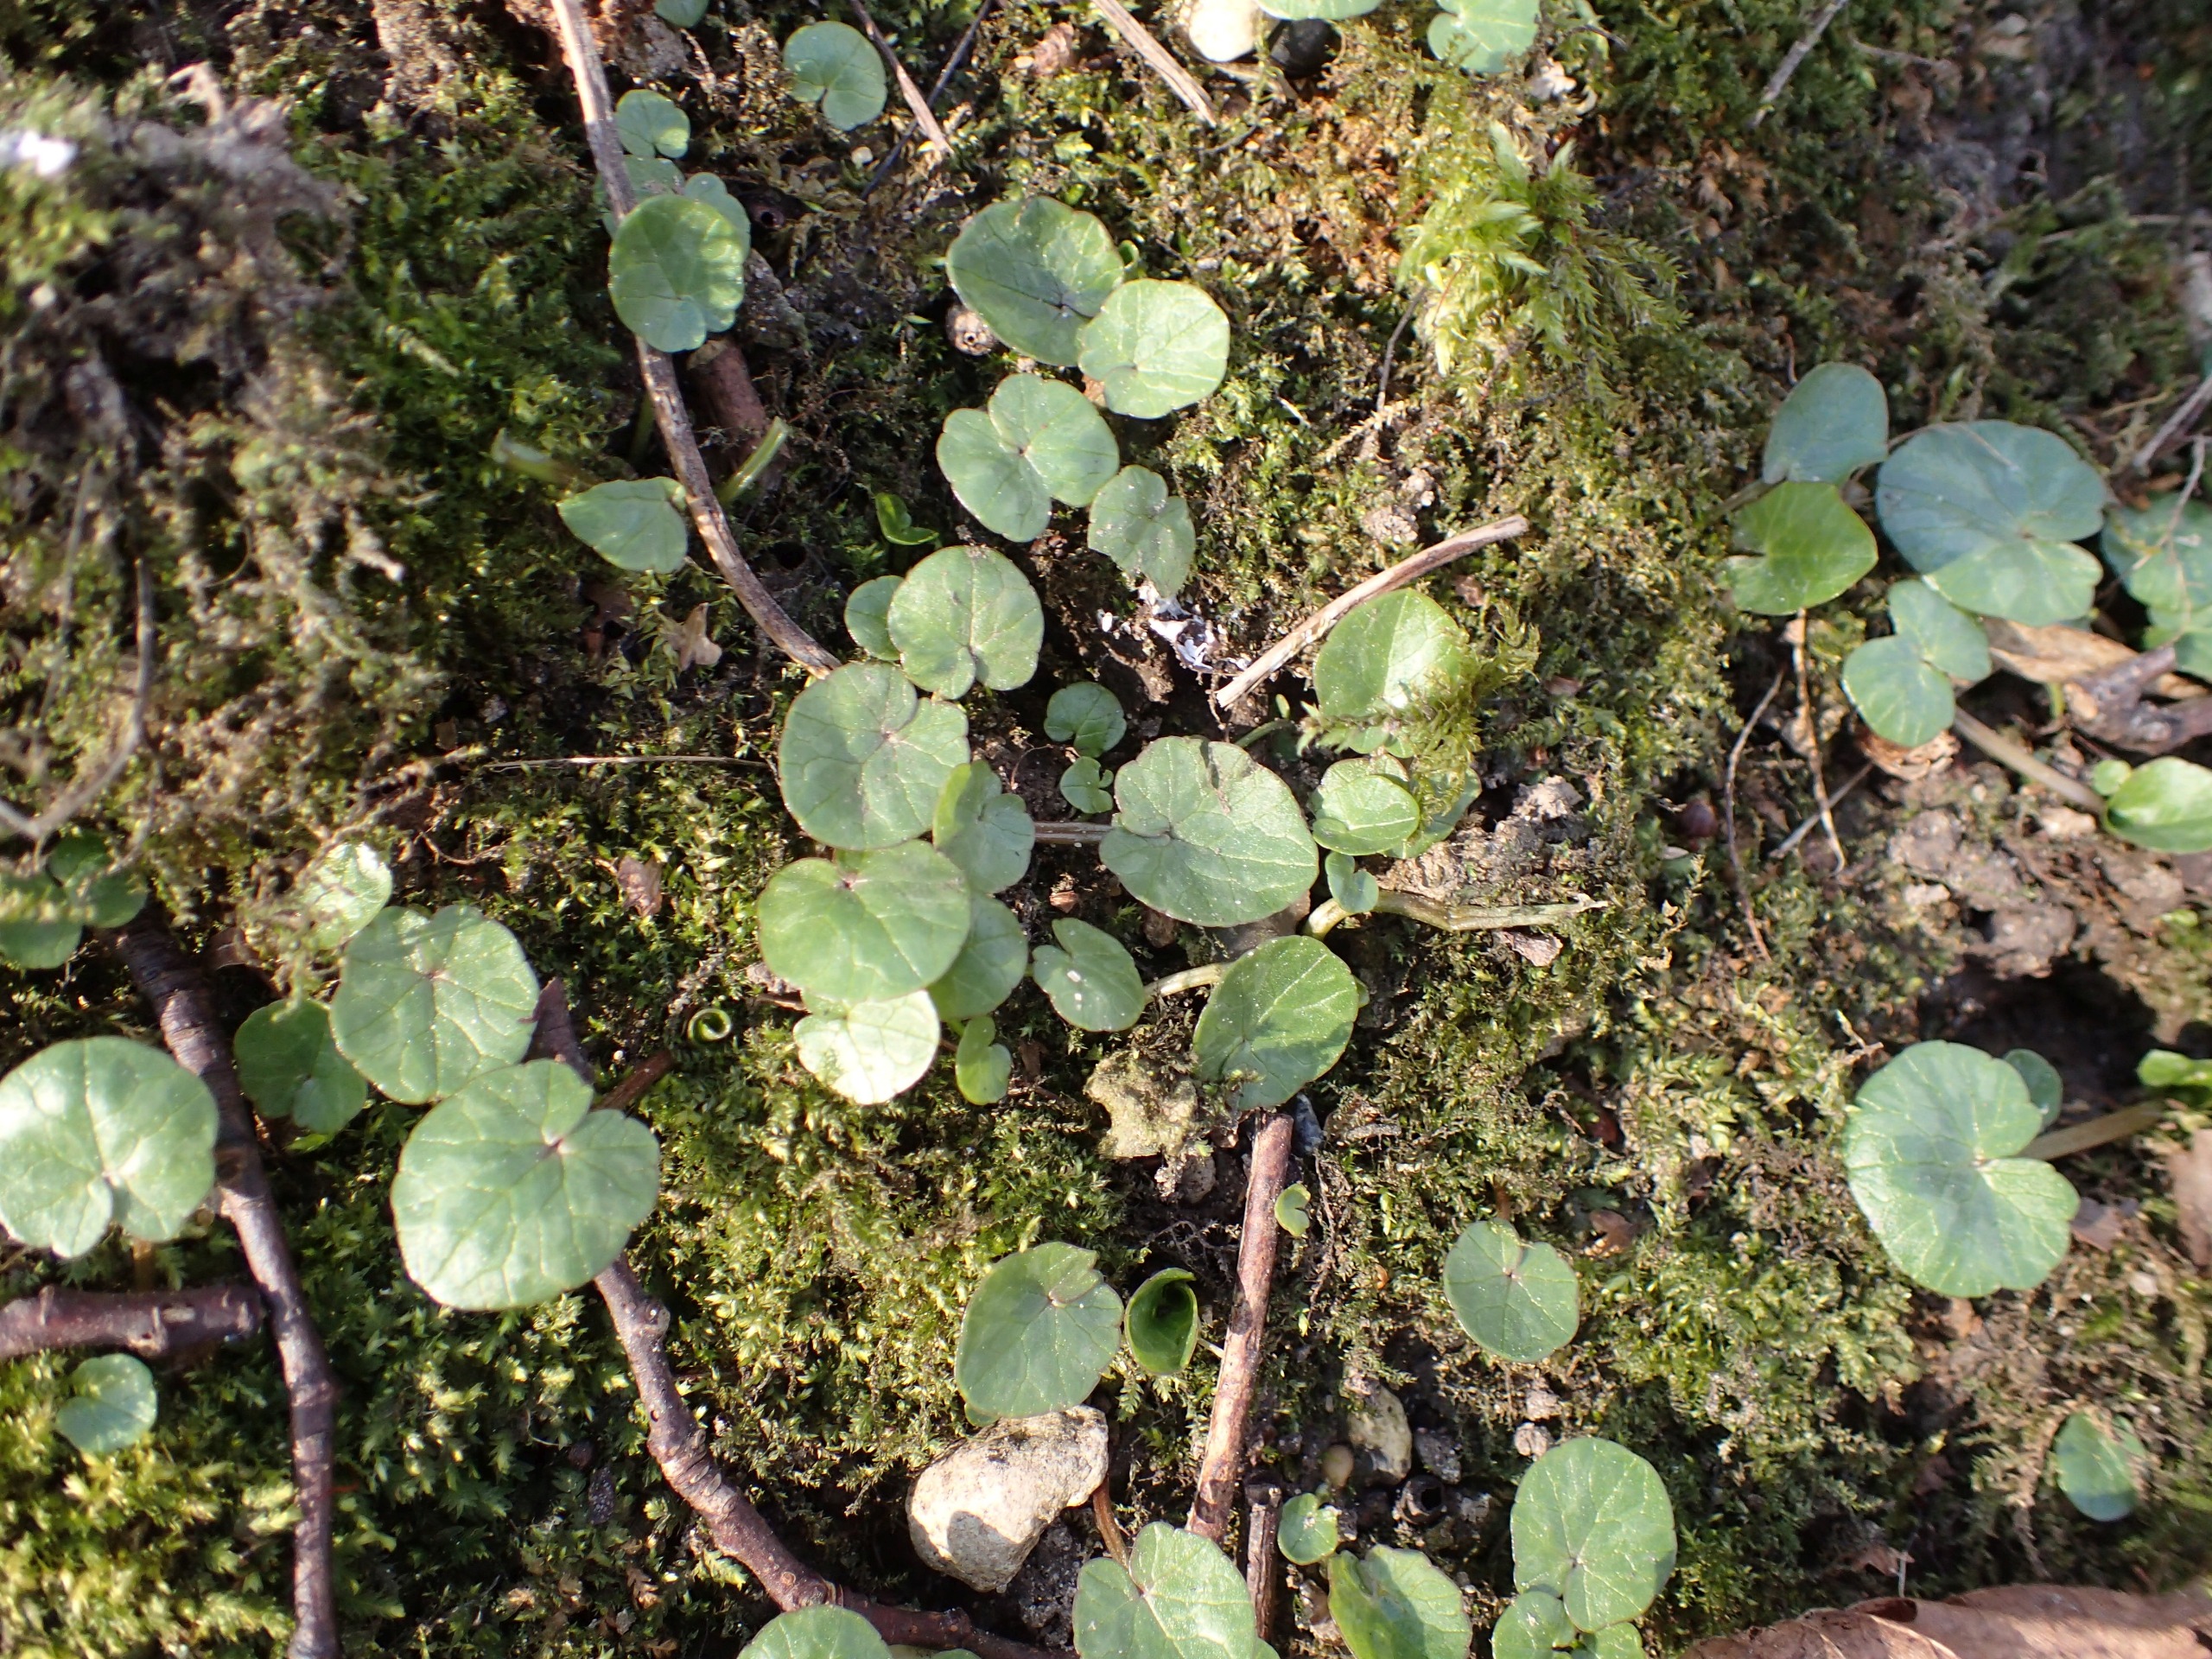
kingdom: Plantae
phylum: Tracheophyta
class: Magnoliopsida
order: Ranunculales
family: Ranunculaceae
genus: Ficaria
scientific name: Ficaria verna
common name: Vorterod
